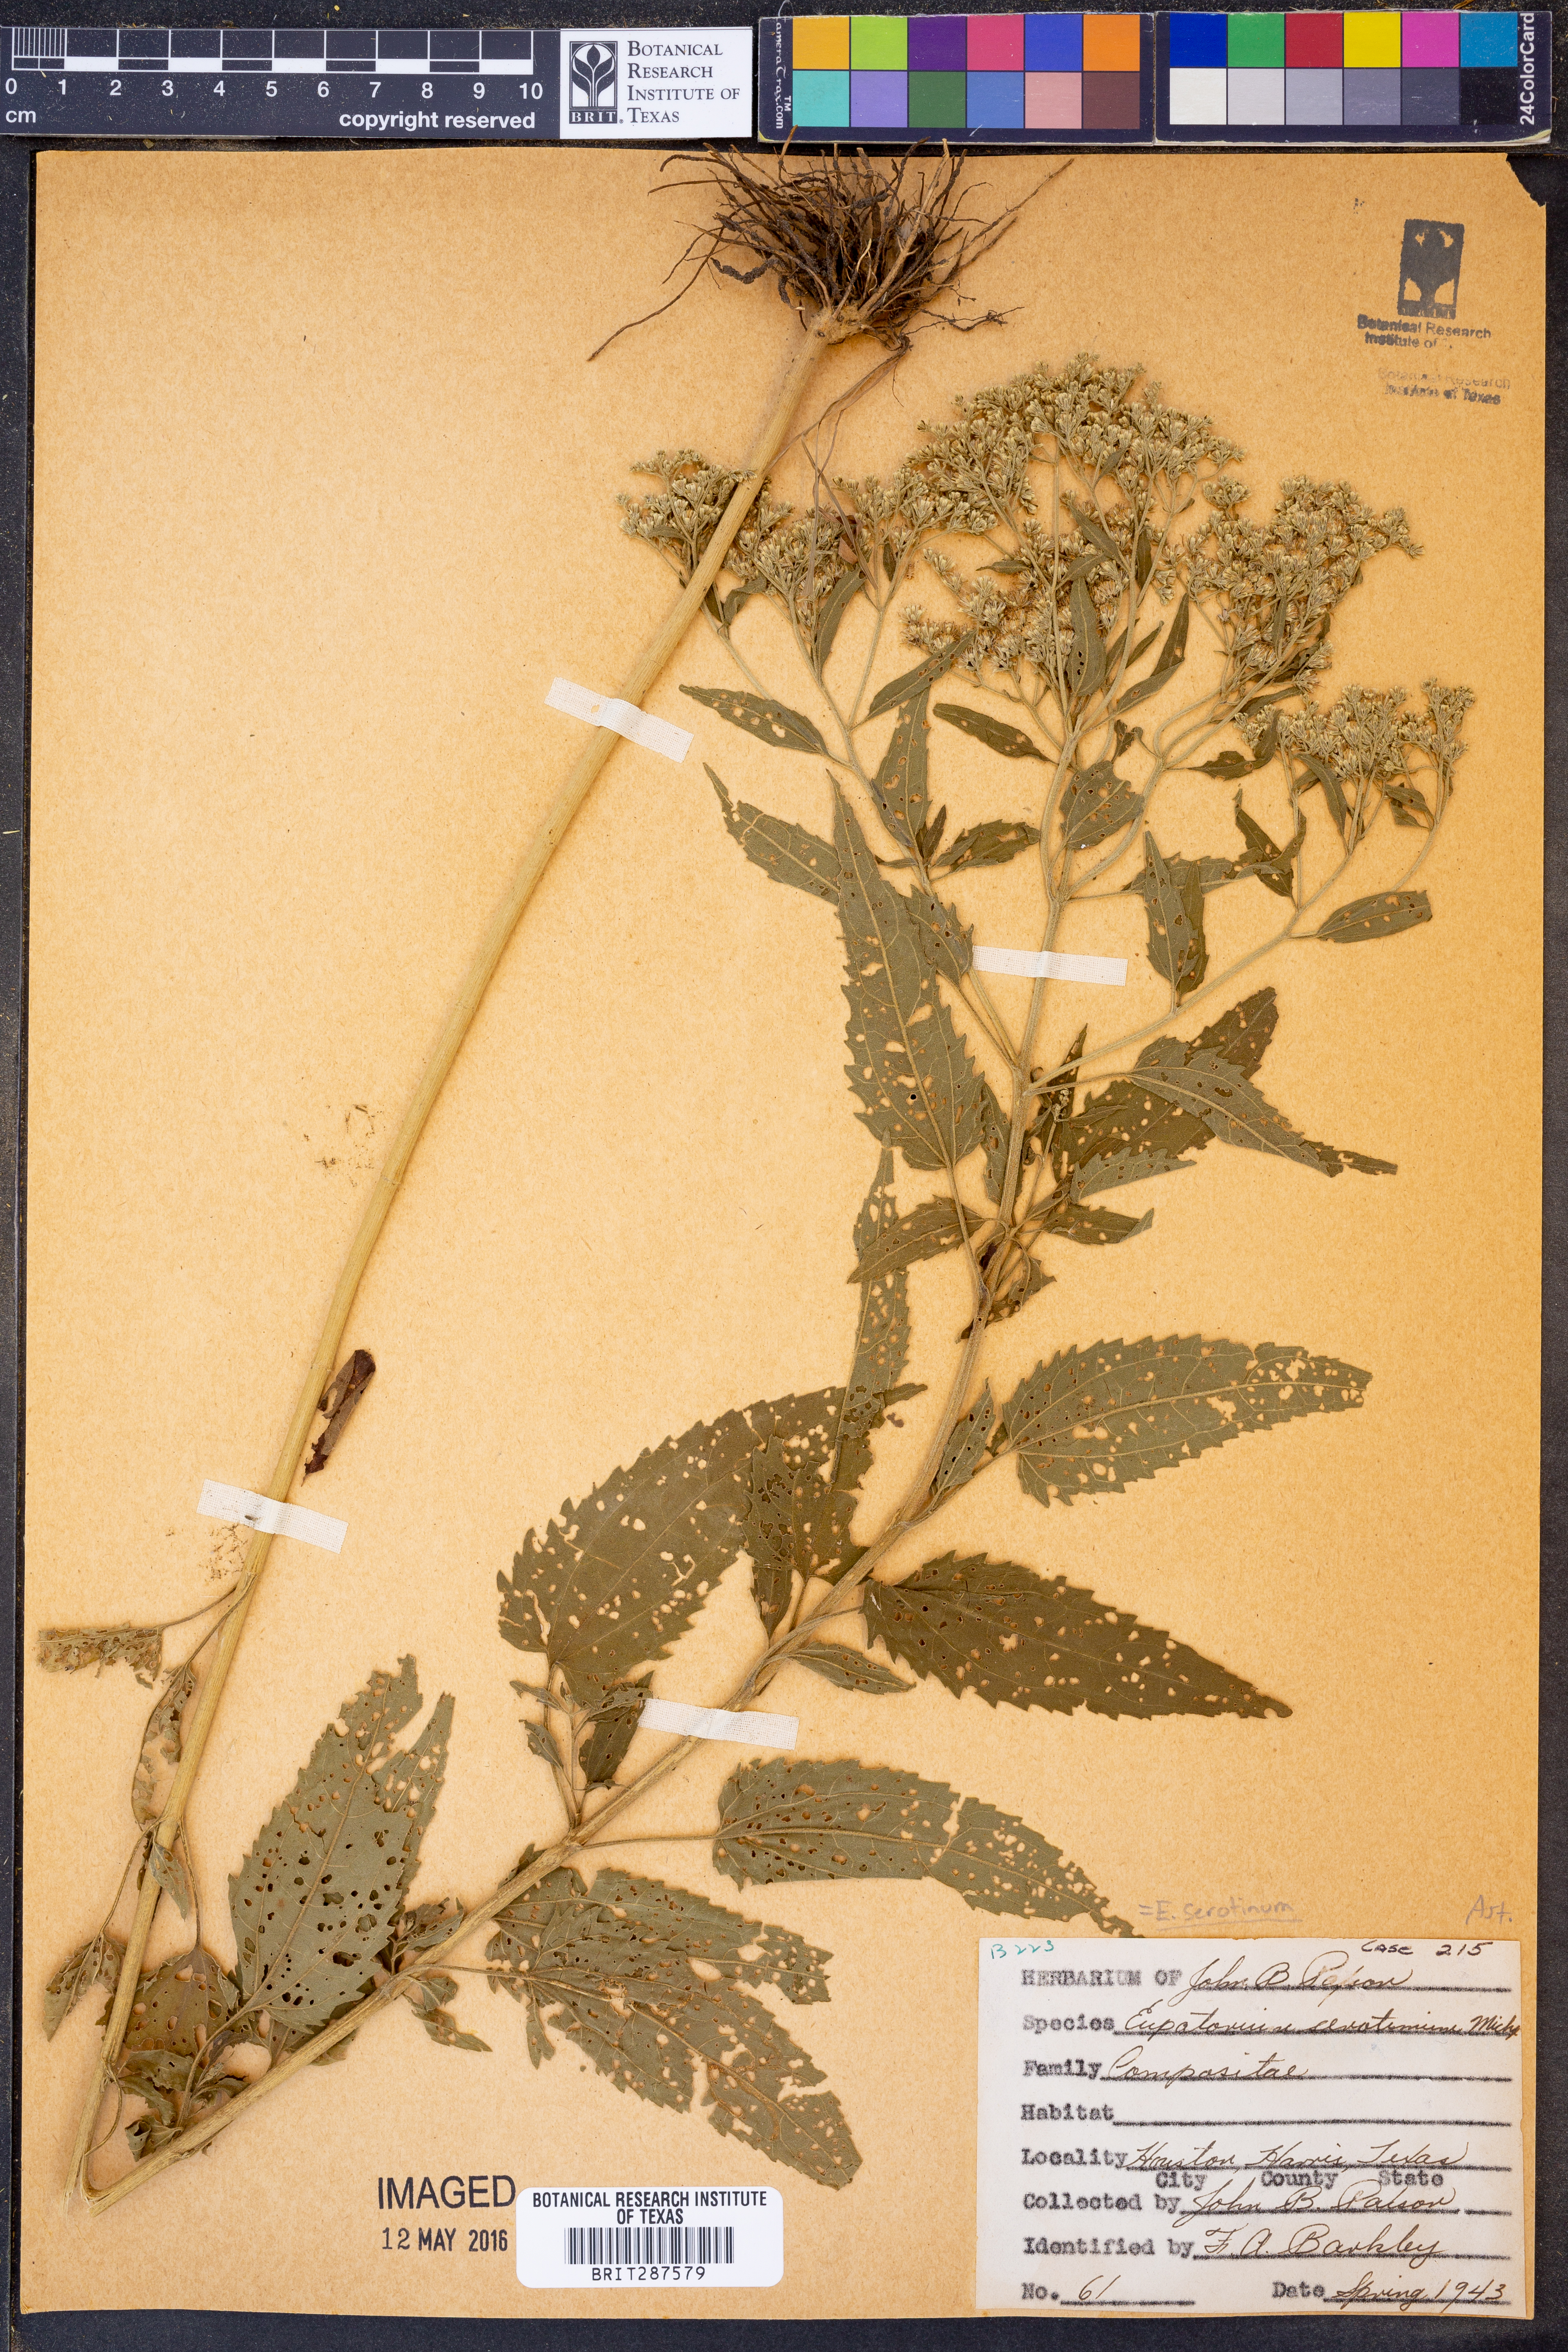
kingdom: Plantae
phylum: Tracheophyta
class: Magnoliopsida
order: Asterales
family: Asteraceae
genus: Eupatorium
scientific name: Eupatorium serotinum
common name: Late boneset
